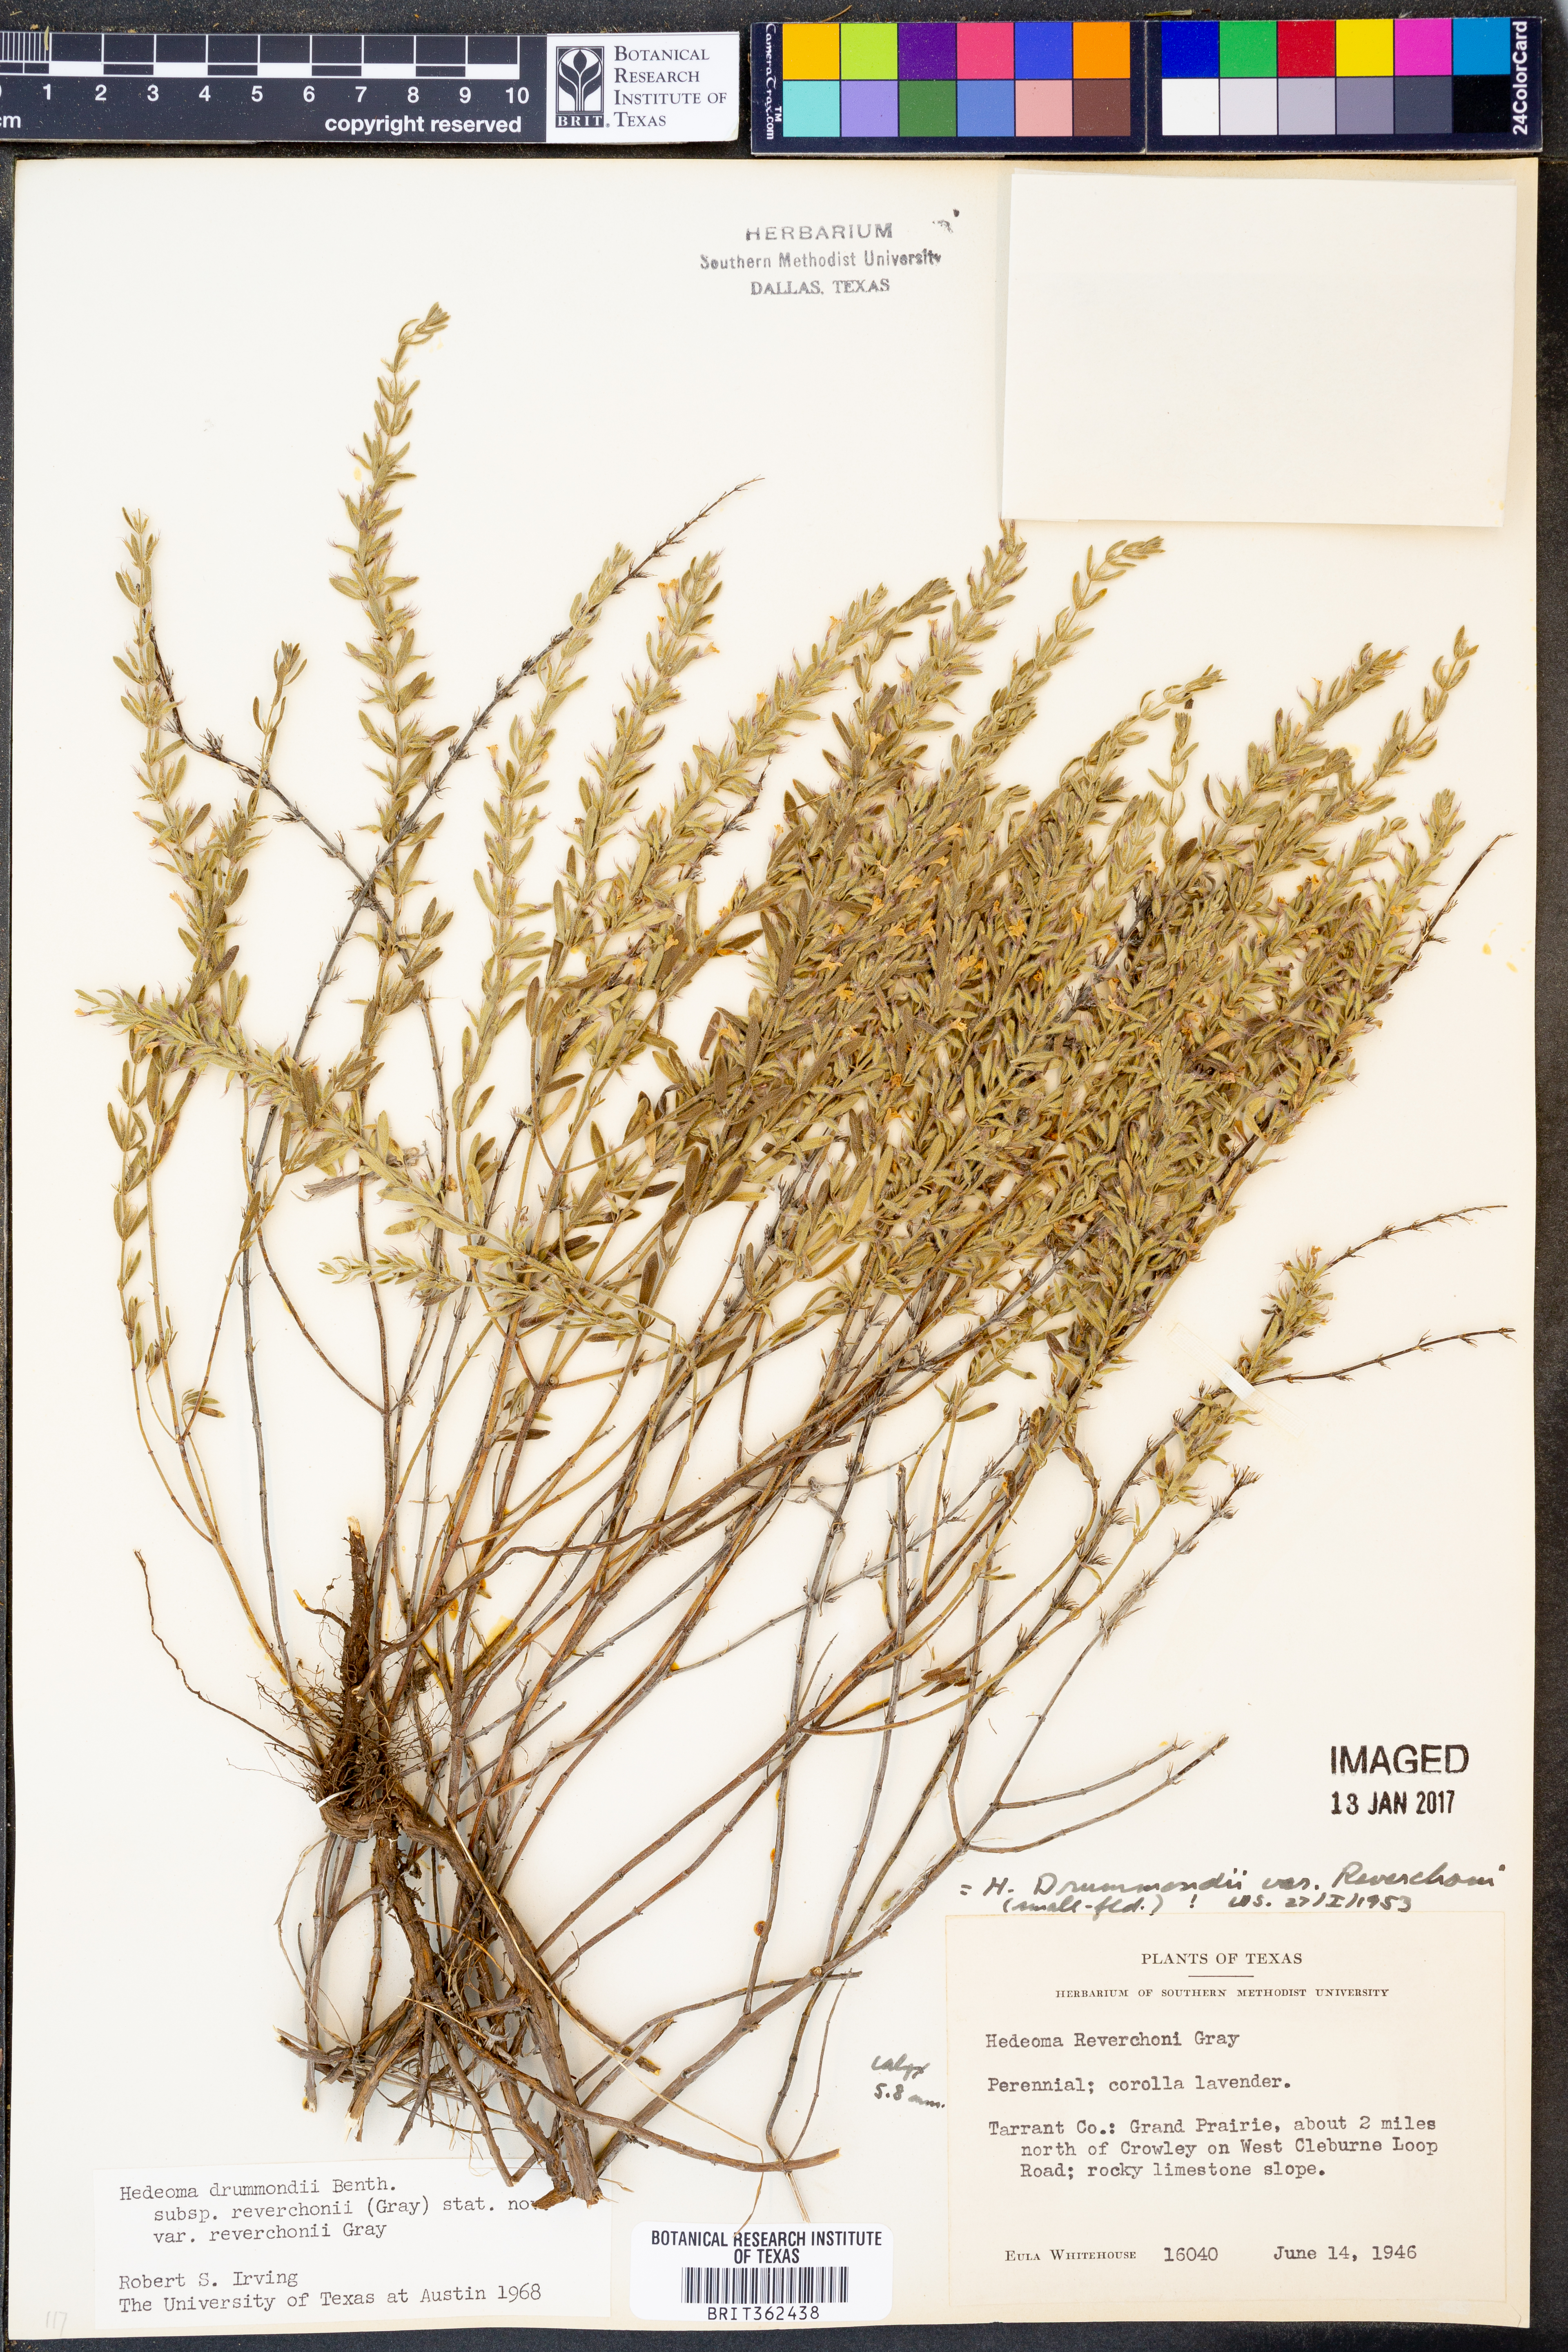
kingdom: Plantae
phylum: Tracheophyta
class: Magnoliopsida
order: Lamiales
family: Lamiaceae
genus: Hedeoma
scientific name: Hedeoma reverchonii
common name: Reverchon's false penny-royal
